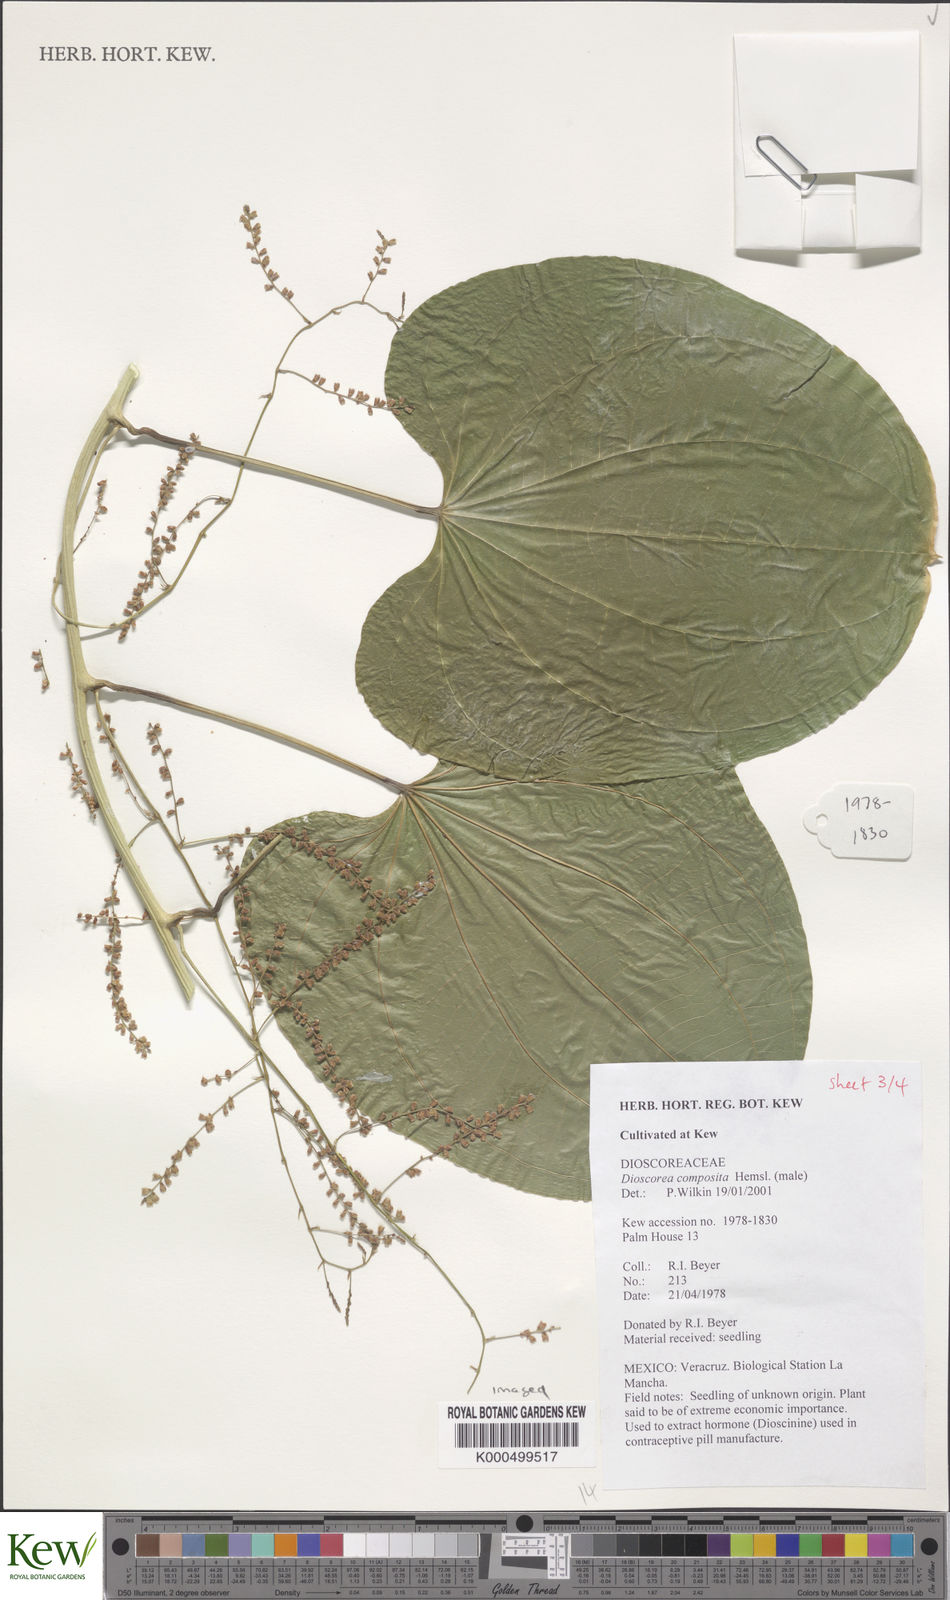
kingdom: Plantae
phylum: Tracheophyta
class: Liliopsida
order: Dioscoreales
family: Dioscoreaceae
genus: Dioscorea
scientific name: Dioscorea composita
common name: Barbasco
